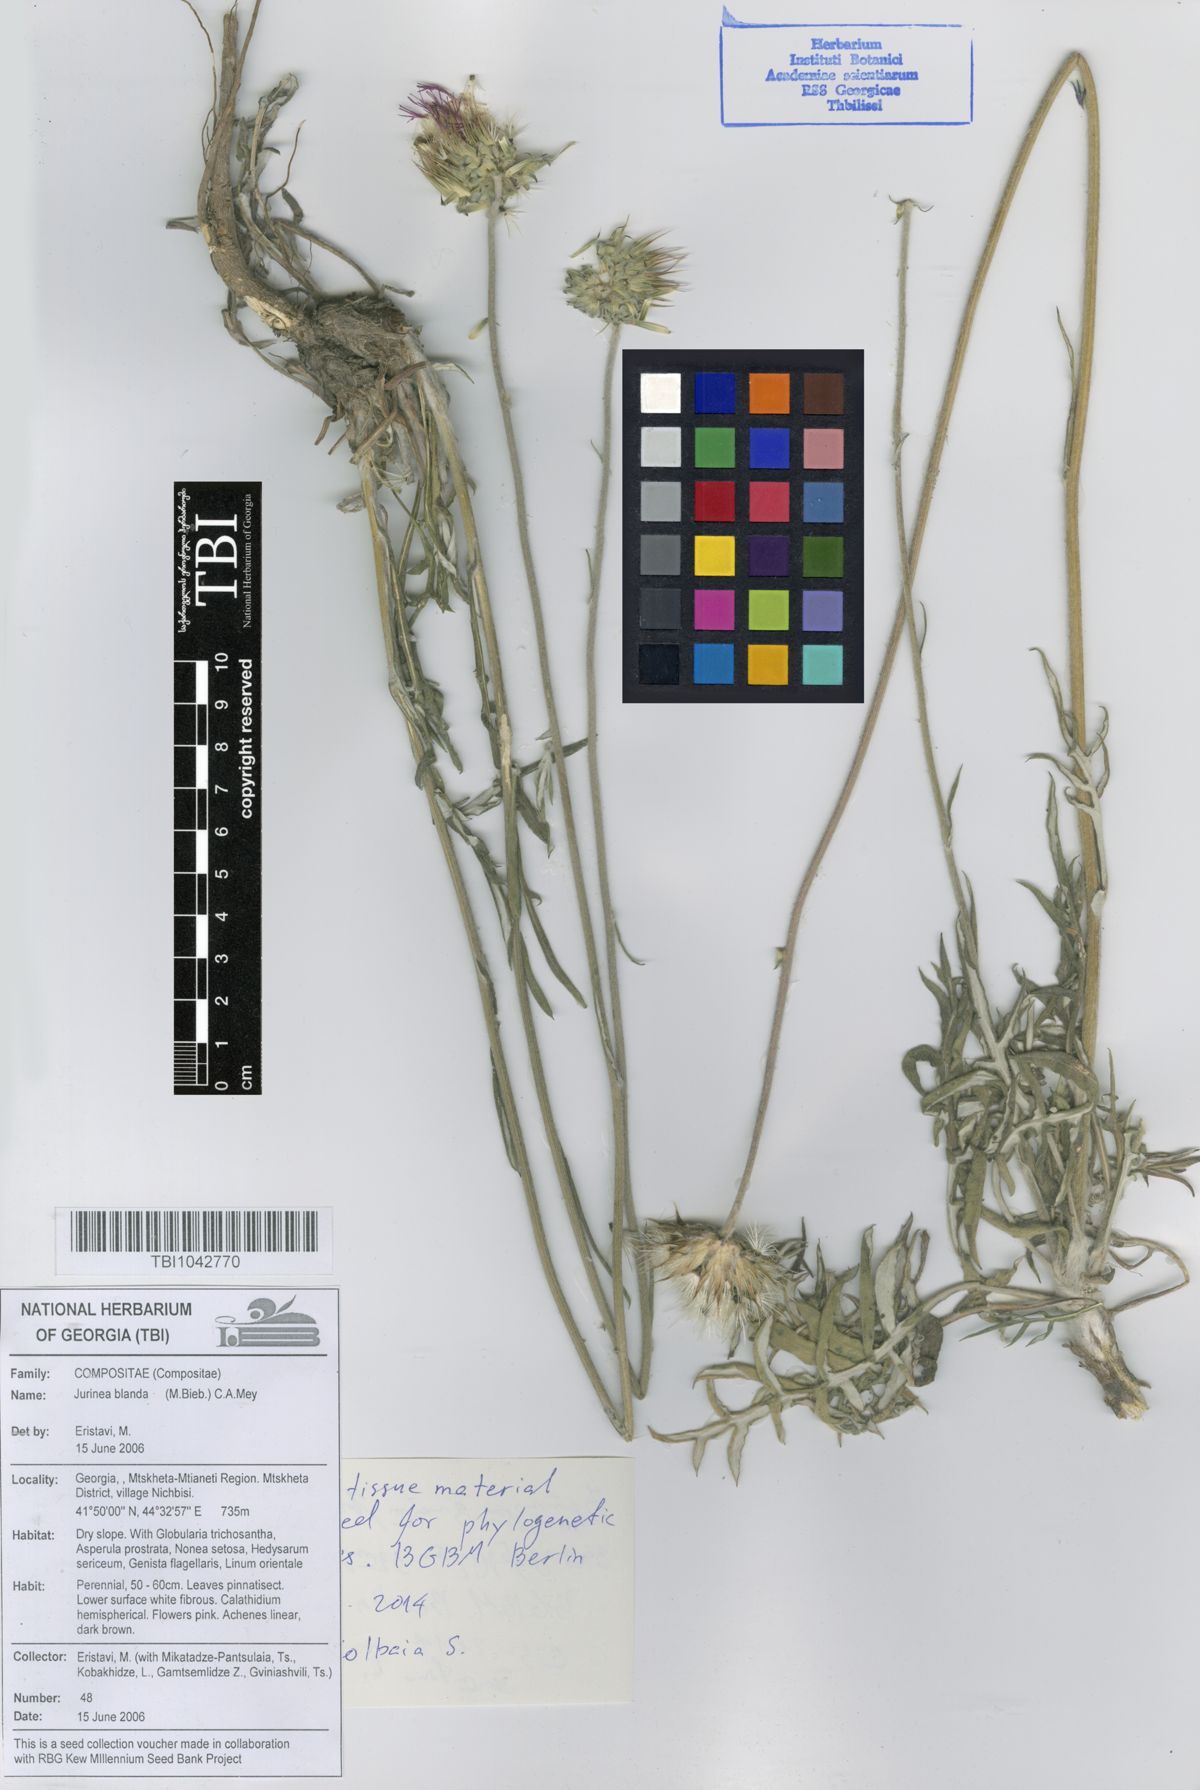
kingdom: Plantae
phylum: Tracheophyta
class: Magnoliopsida
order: Asterales
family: Asteraceae
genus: Jurinea
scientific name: Jurinea blanda
